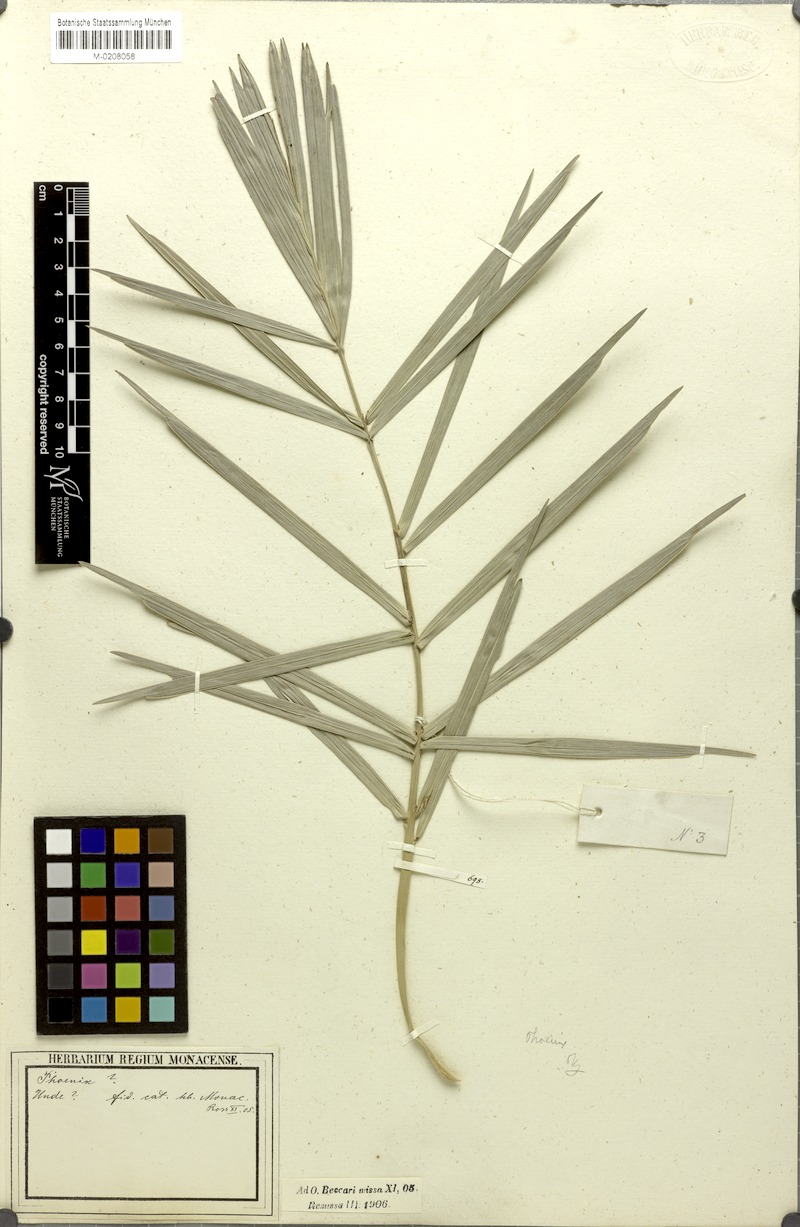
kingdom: Plantae
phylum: Tracheophyta
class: Liliopsida
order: Arecales
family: Arecaceae
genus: Phoenix
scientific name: Phoenix
